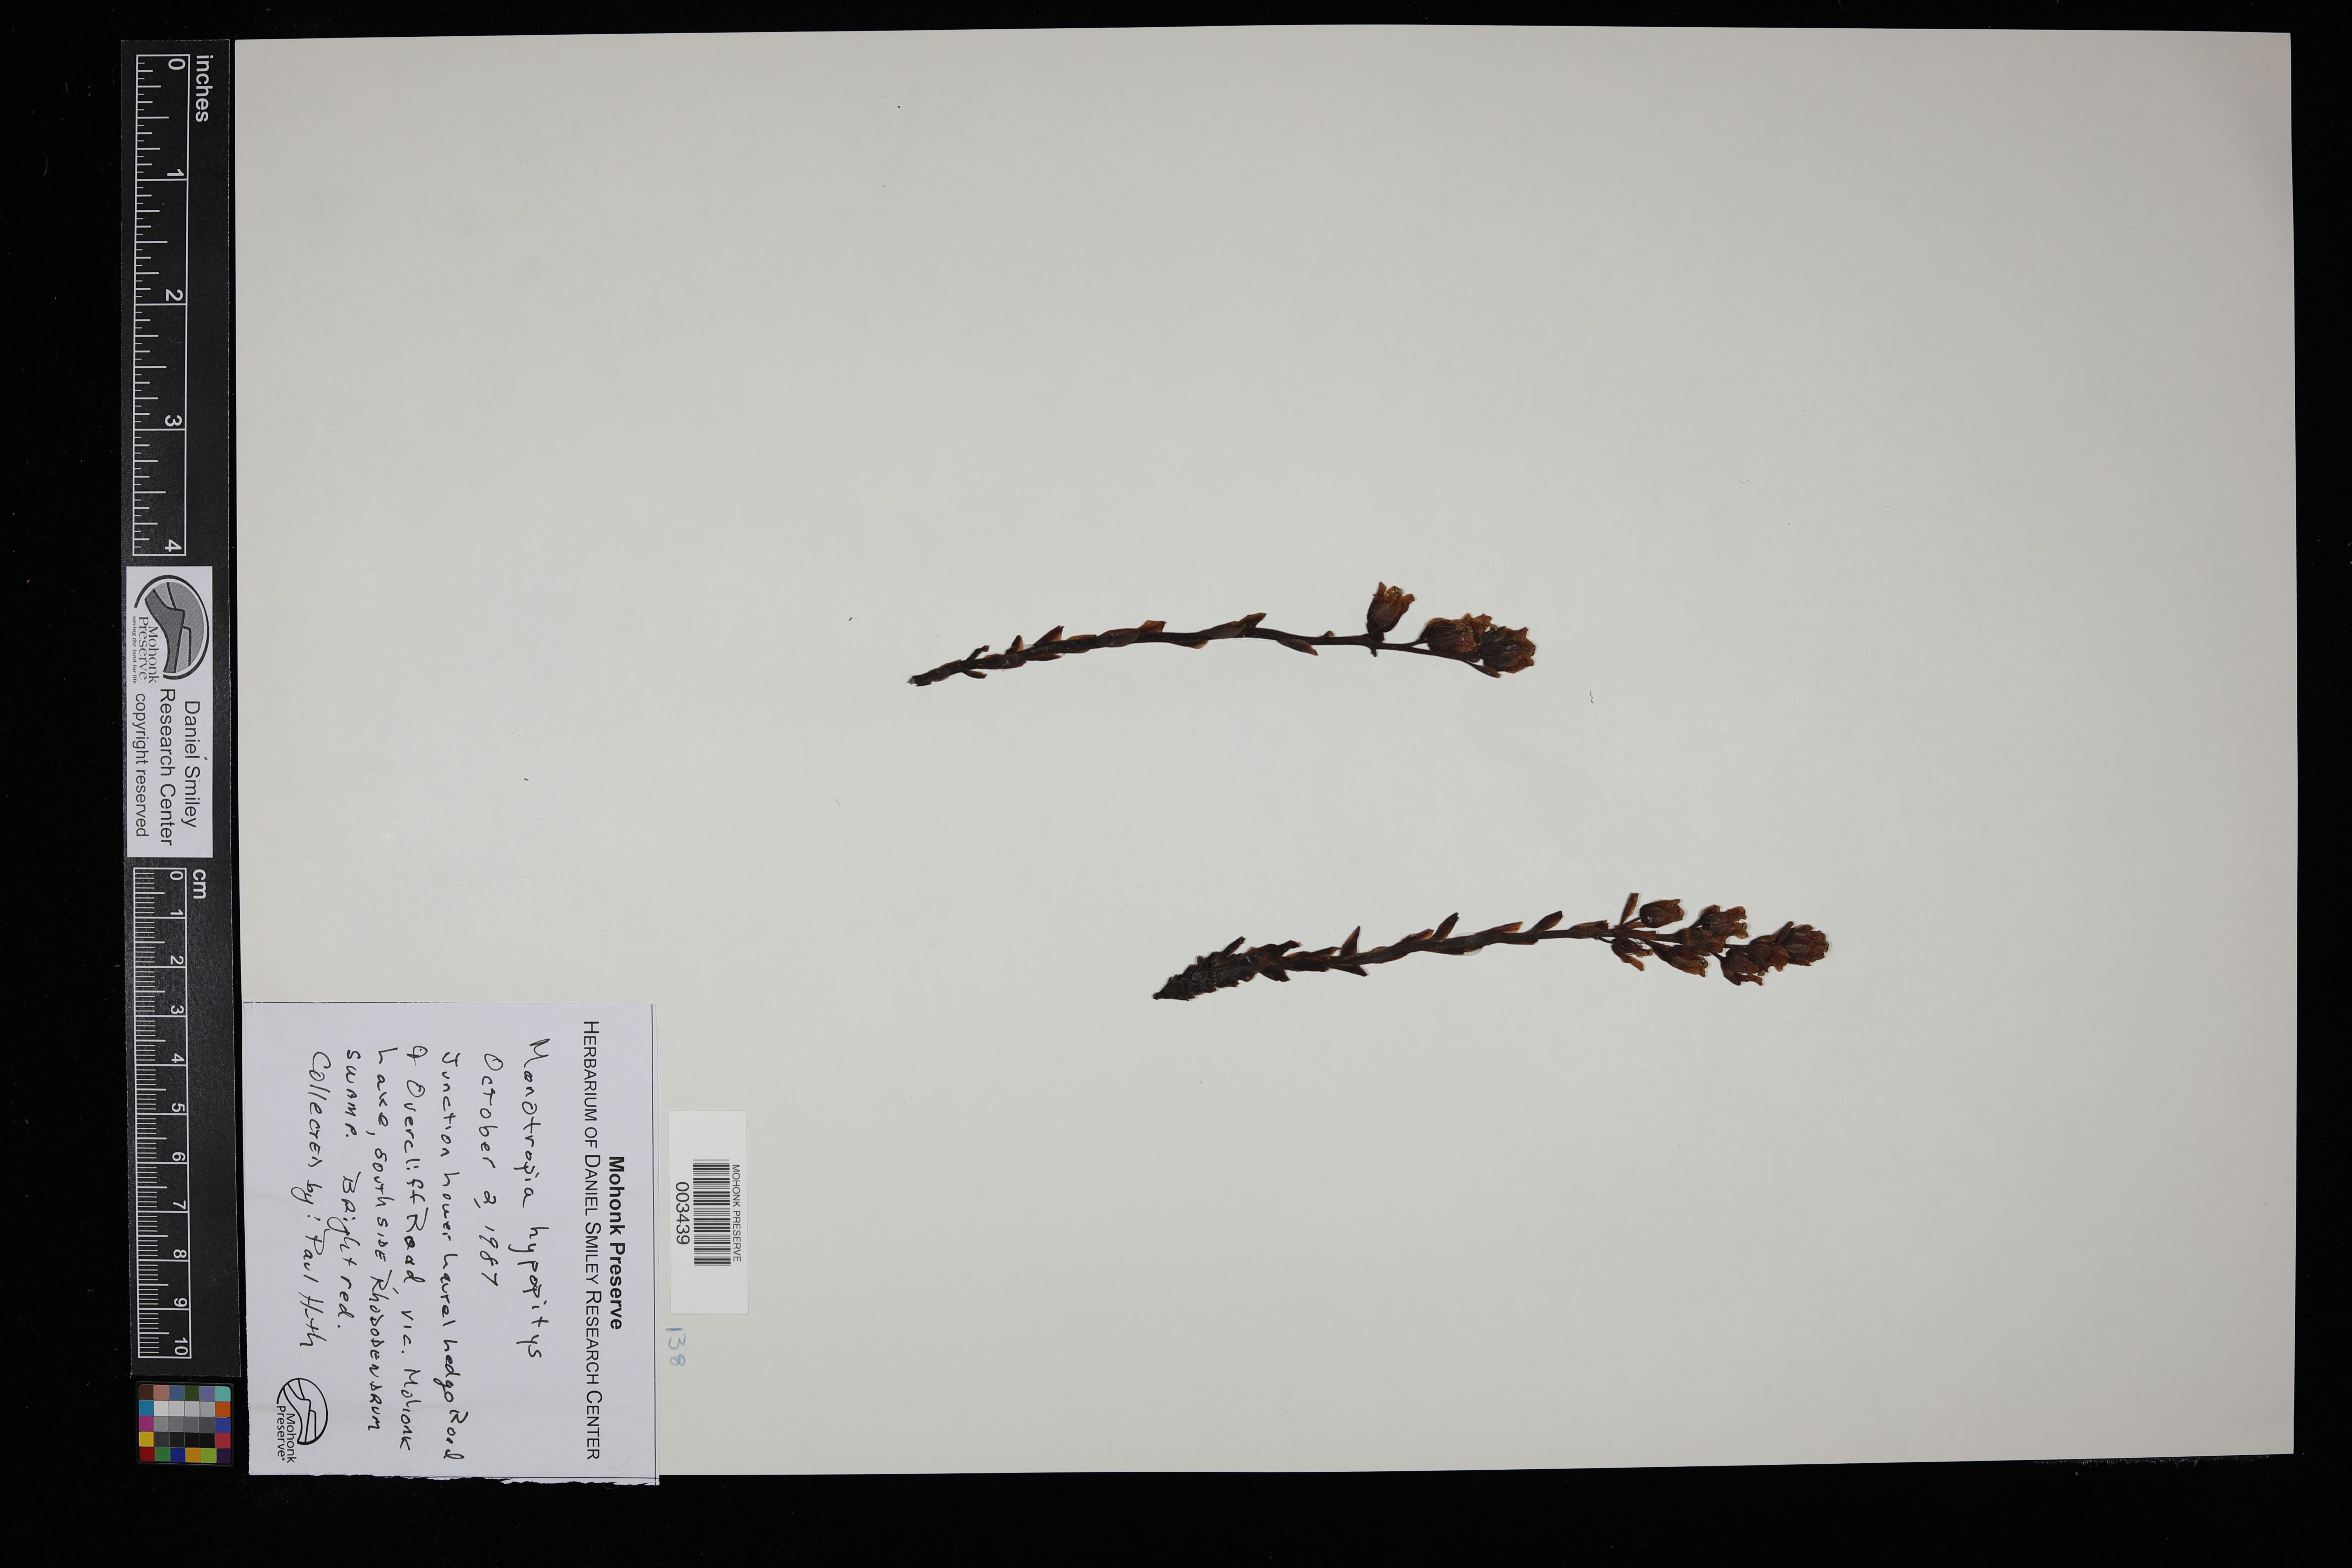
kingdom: Plantae
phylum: Tracheophyta
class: Magnoliopsida
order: Ericales
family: Ericaceae
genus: Hypopitys
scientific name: Hypopitys monotropa
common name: Yellow bird's-nest
